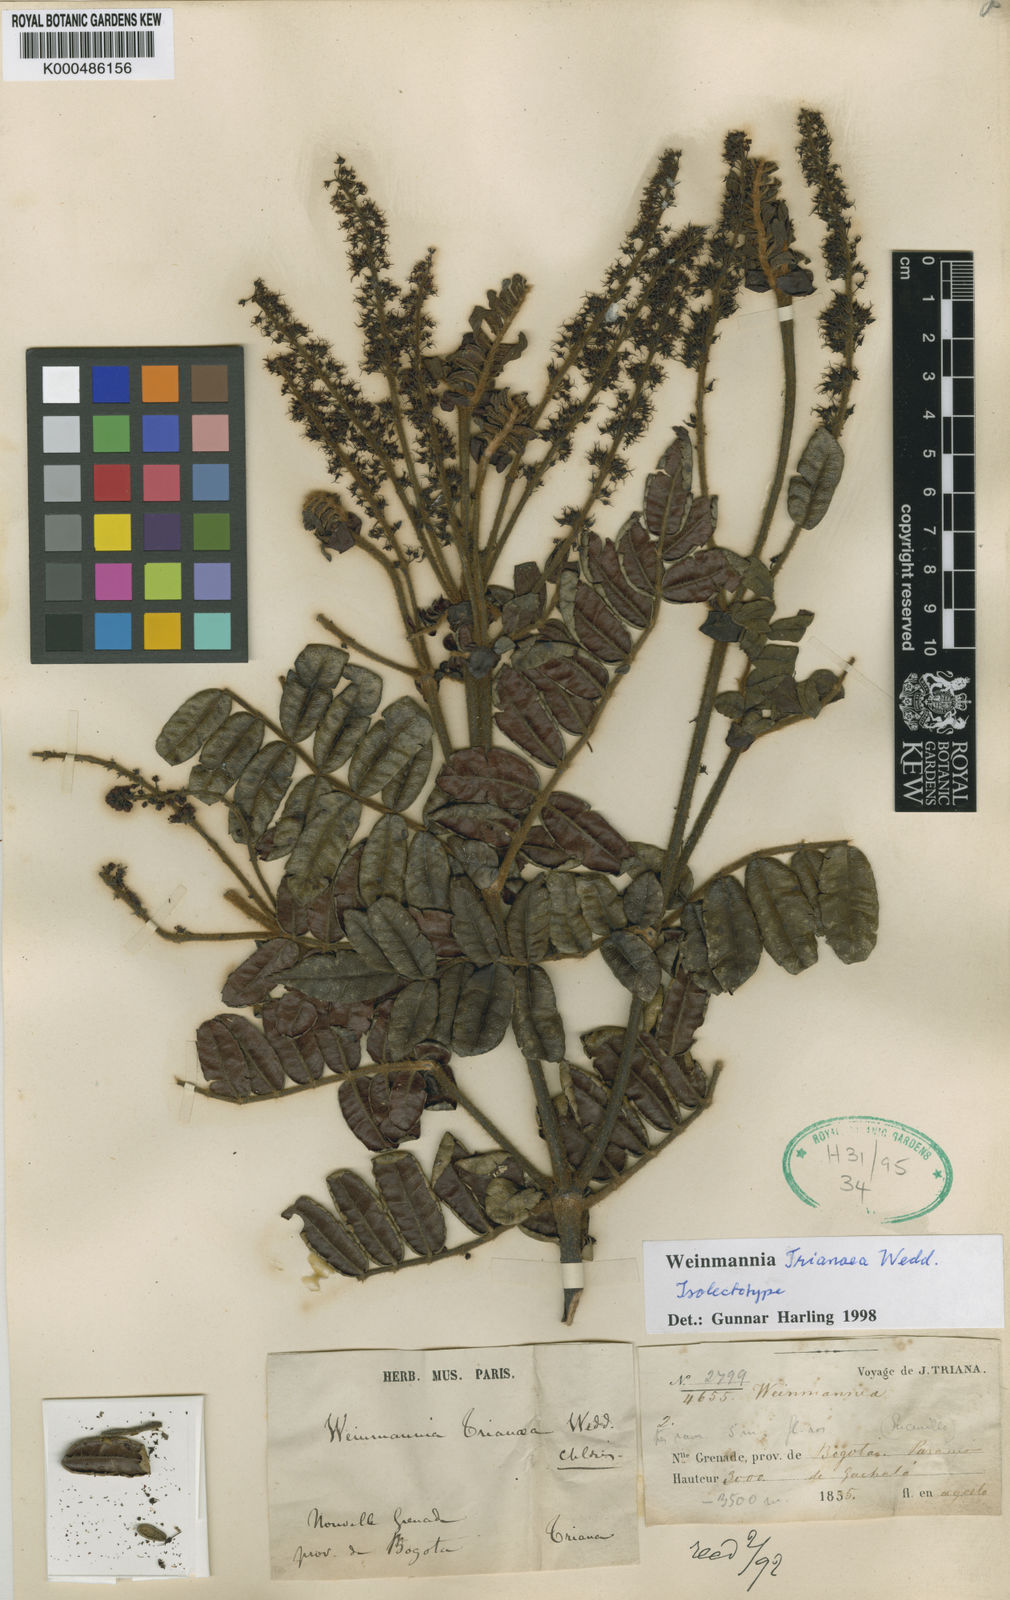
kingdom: Plantae
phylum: Tracheophyta
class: Magnoliopsida
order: Oxalidales
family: Cunoniaceae
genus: Weinmannia
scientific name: Weinmannia
